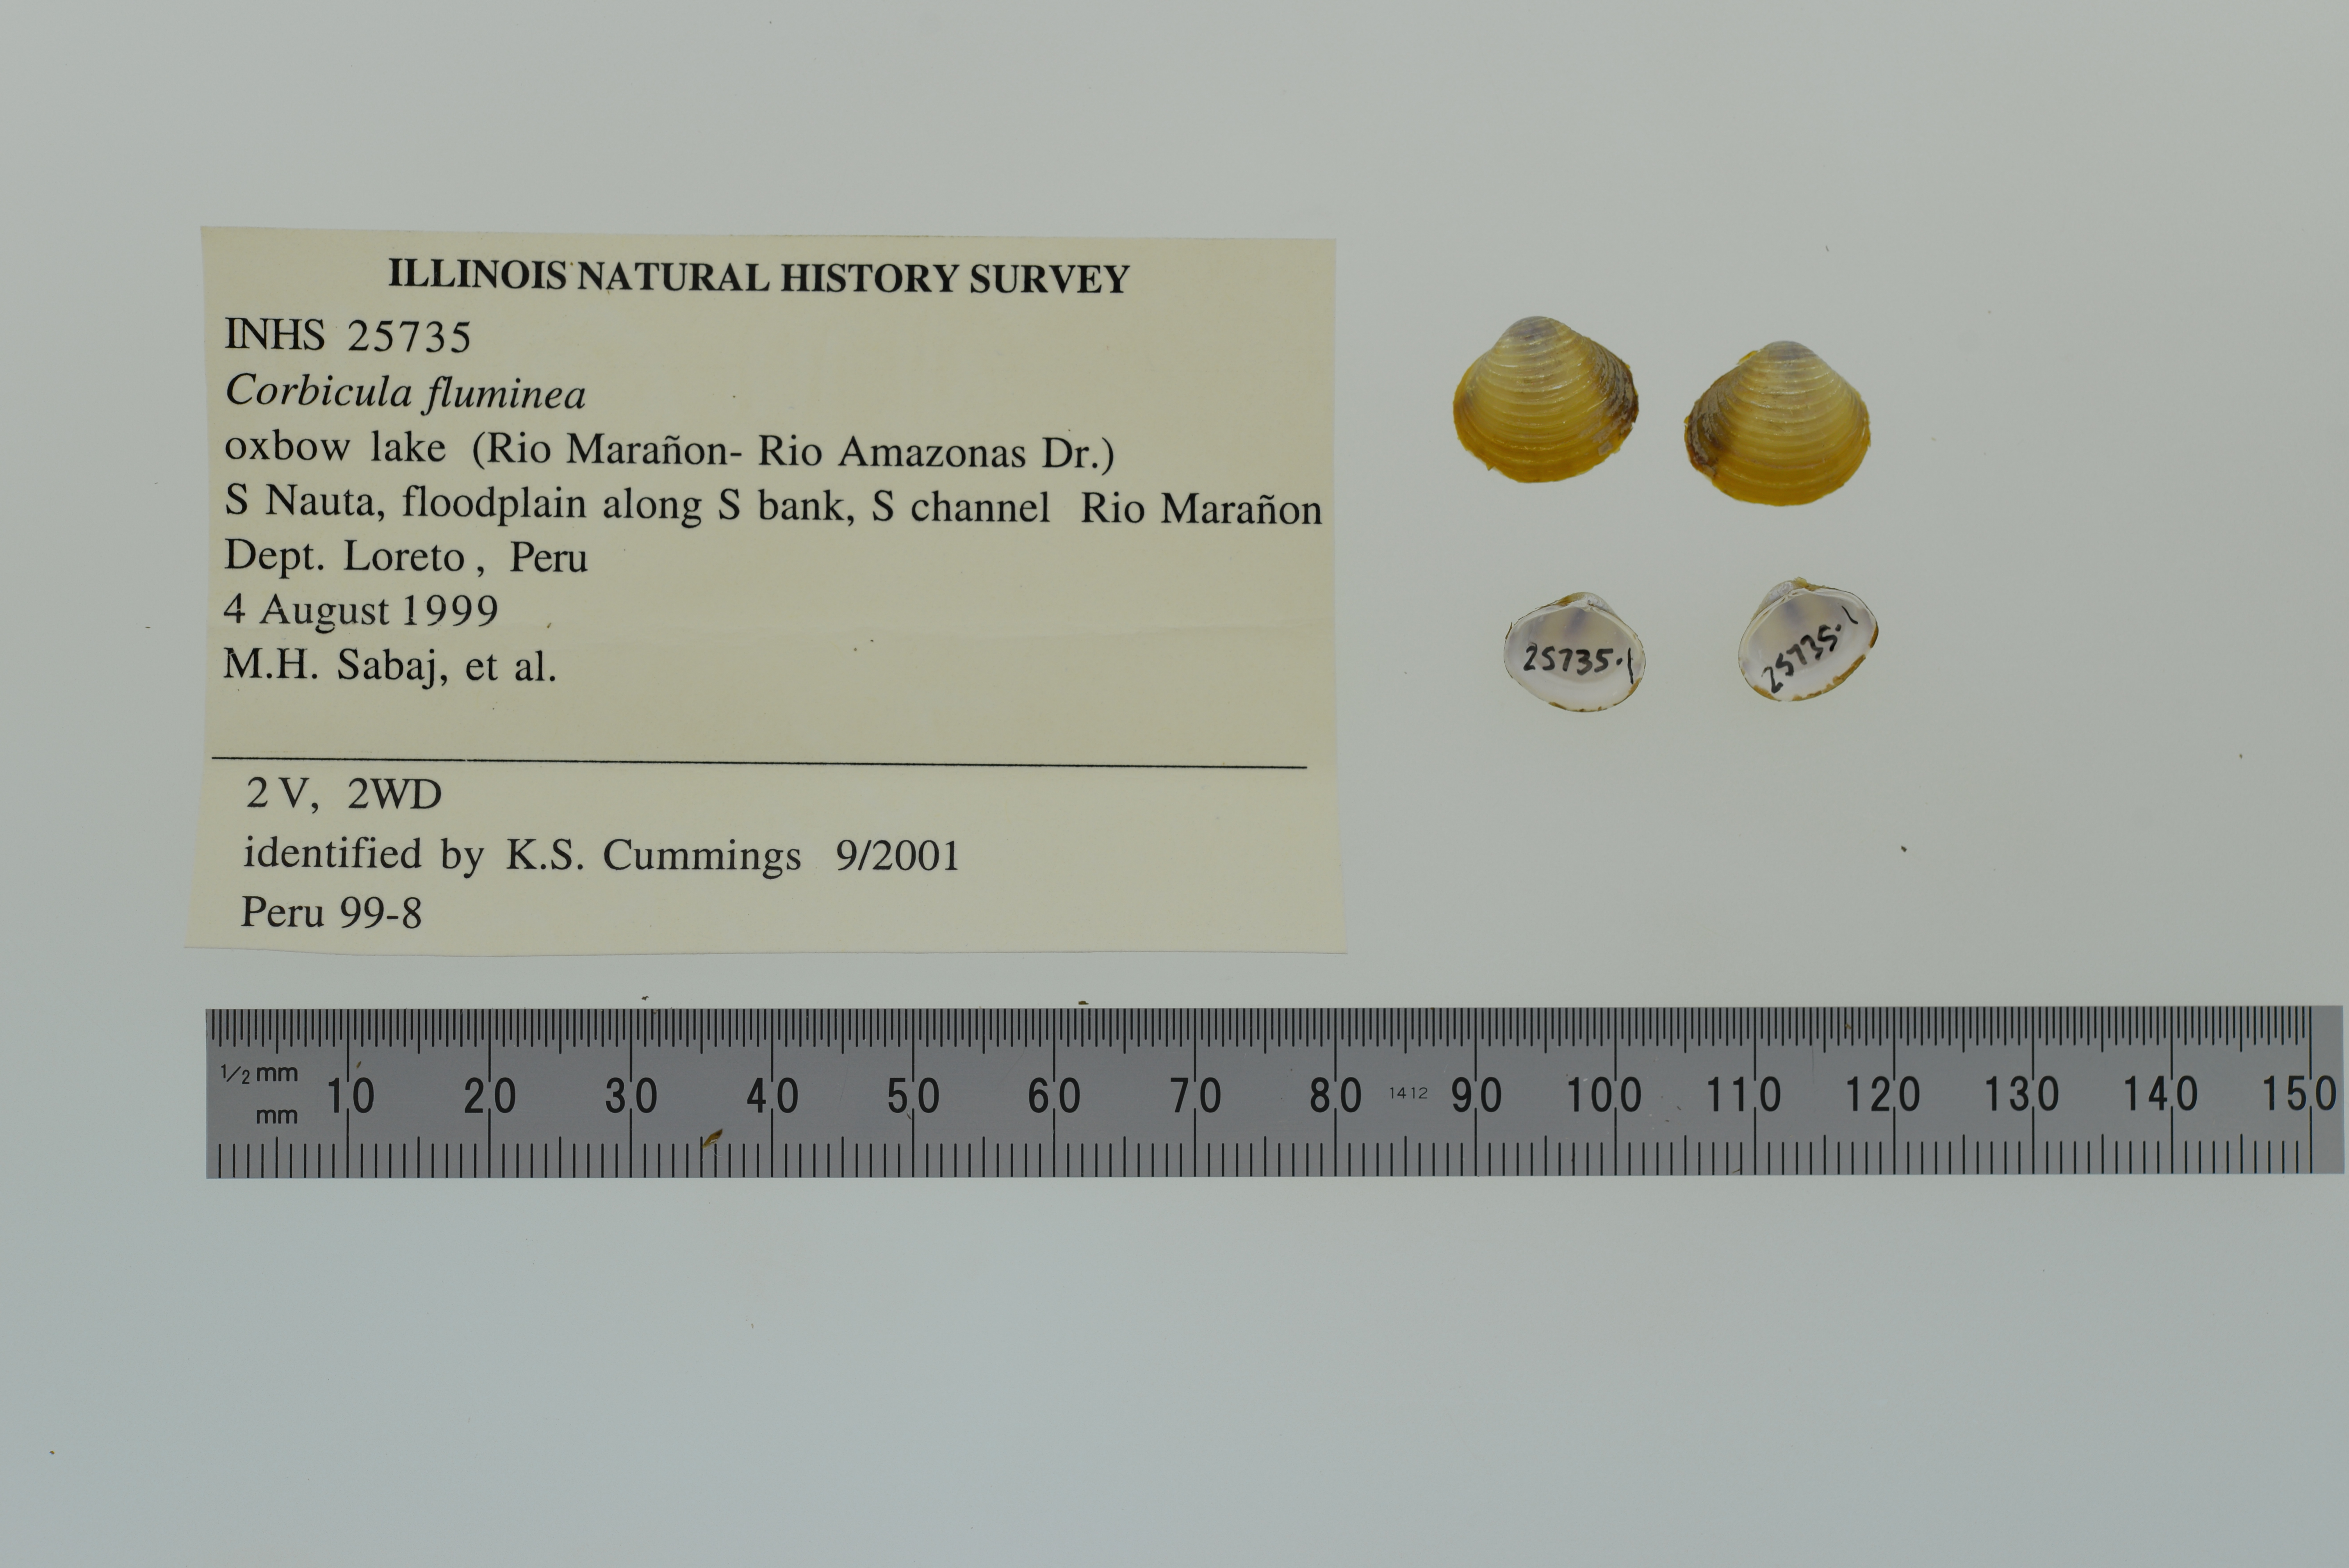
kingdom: Animalia
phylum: Mollusca
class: Bivalvia
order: Venerida
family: Cyrenidae
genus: Corbicula
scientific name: Corbicula fluminea
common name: Asian clam
